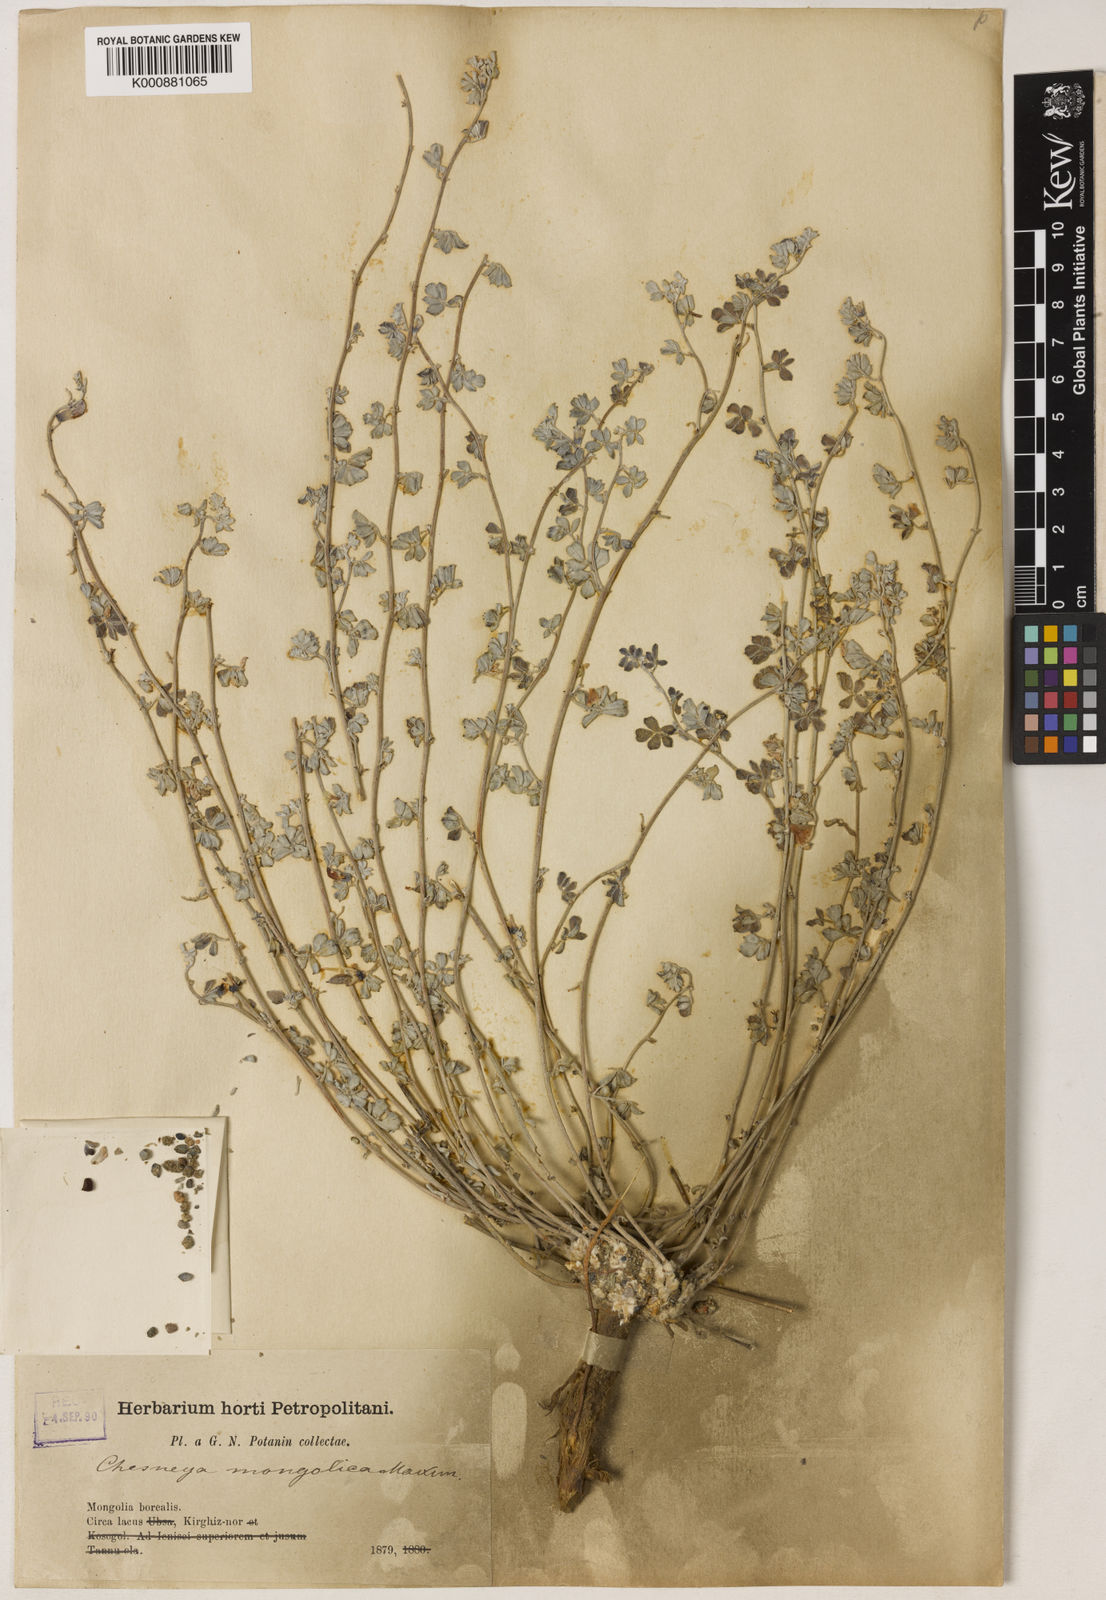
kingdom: Plantae
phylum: Tracheophyta
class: Magnoliopsida
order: Fabales
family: Fabaceae
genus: Chesneya
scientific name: Chesneya mongolica
